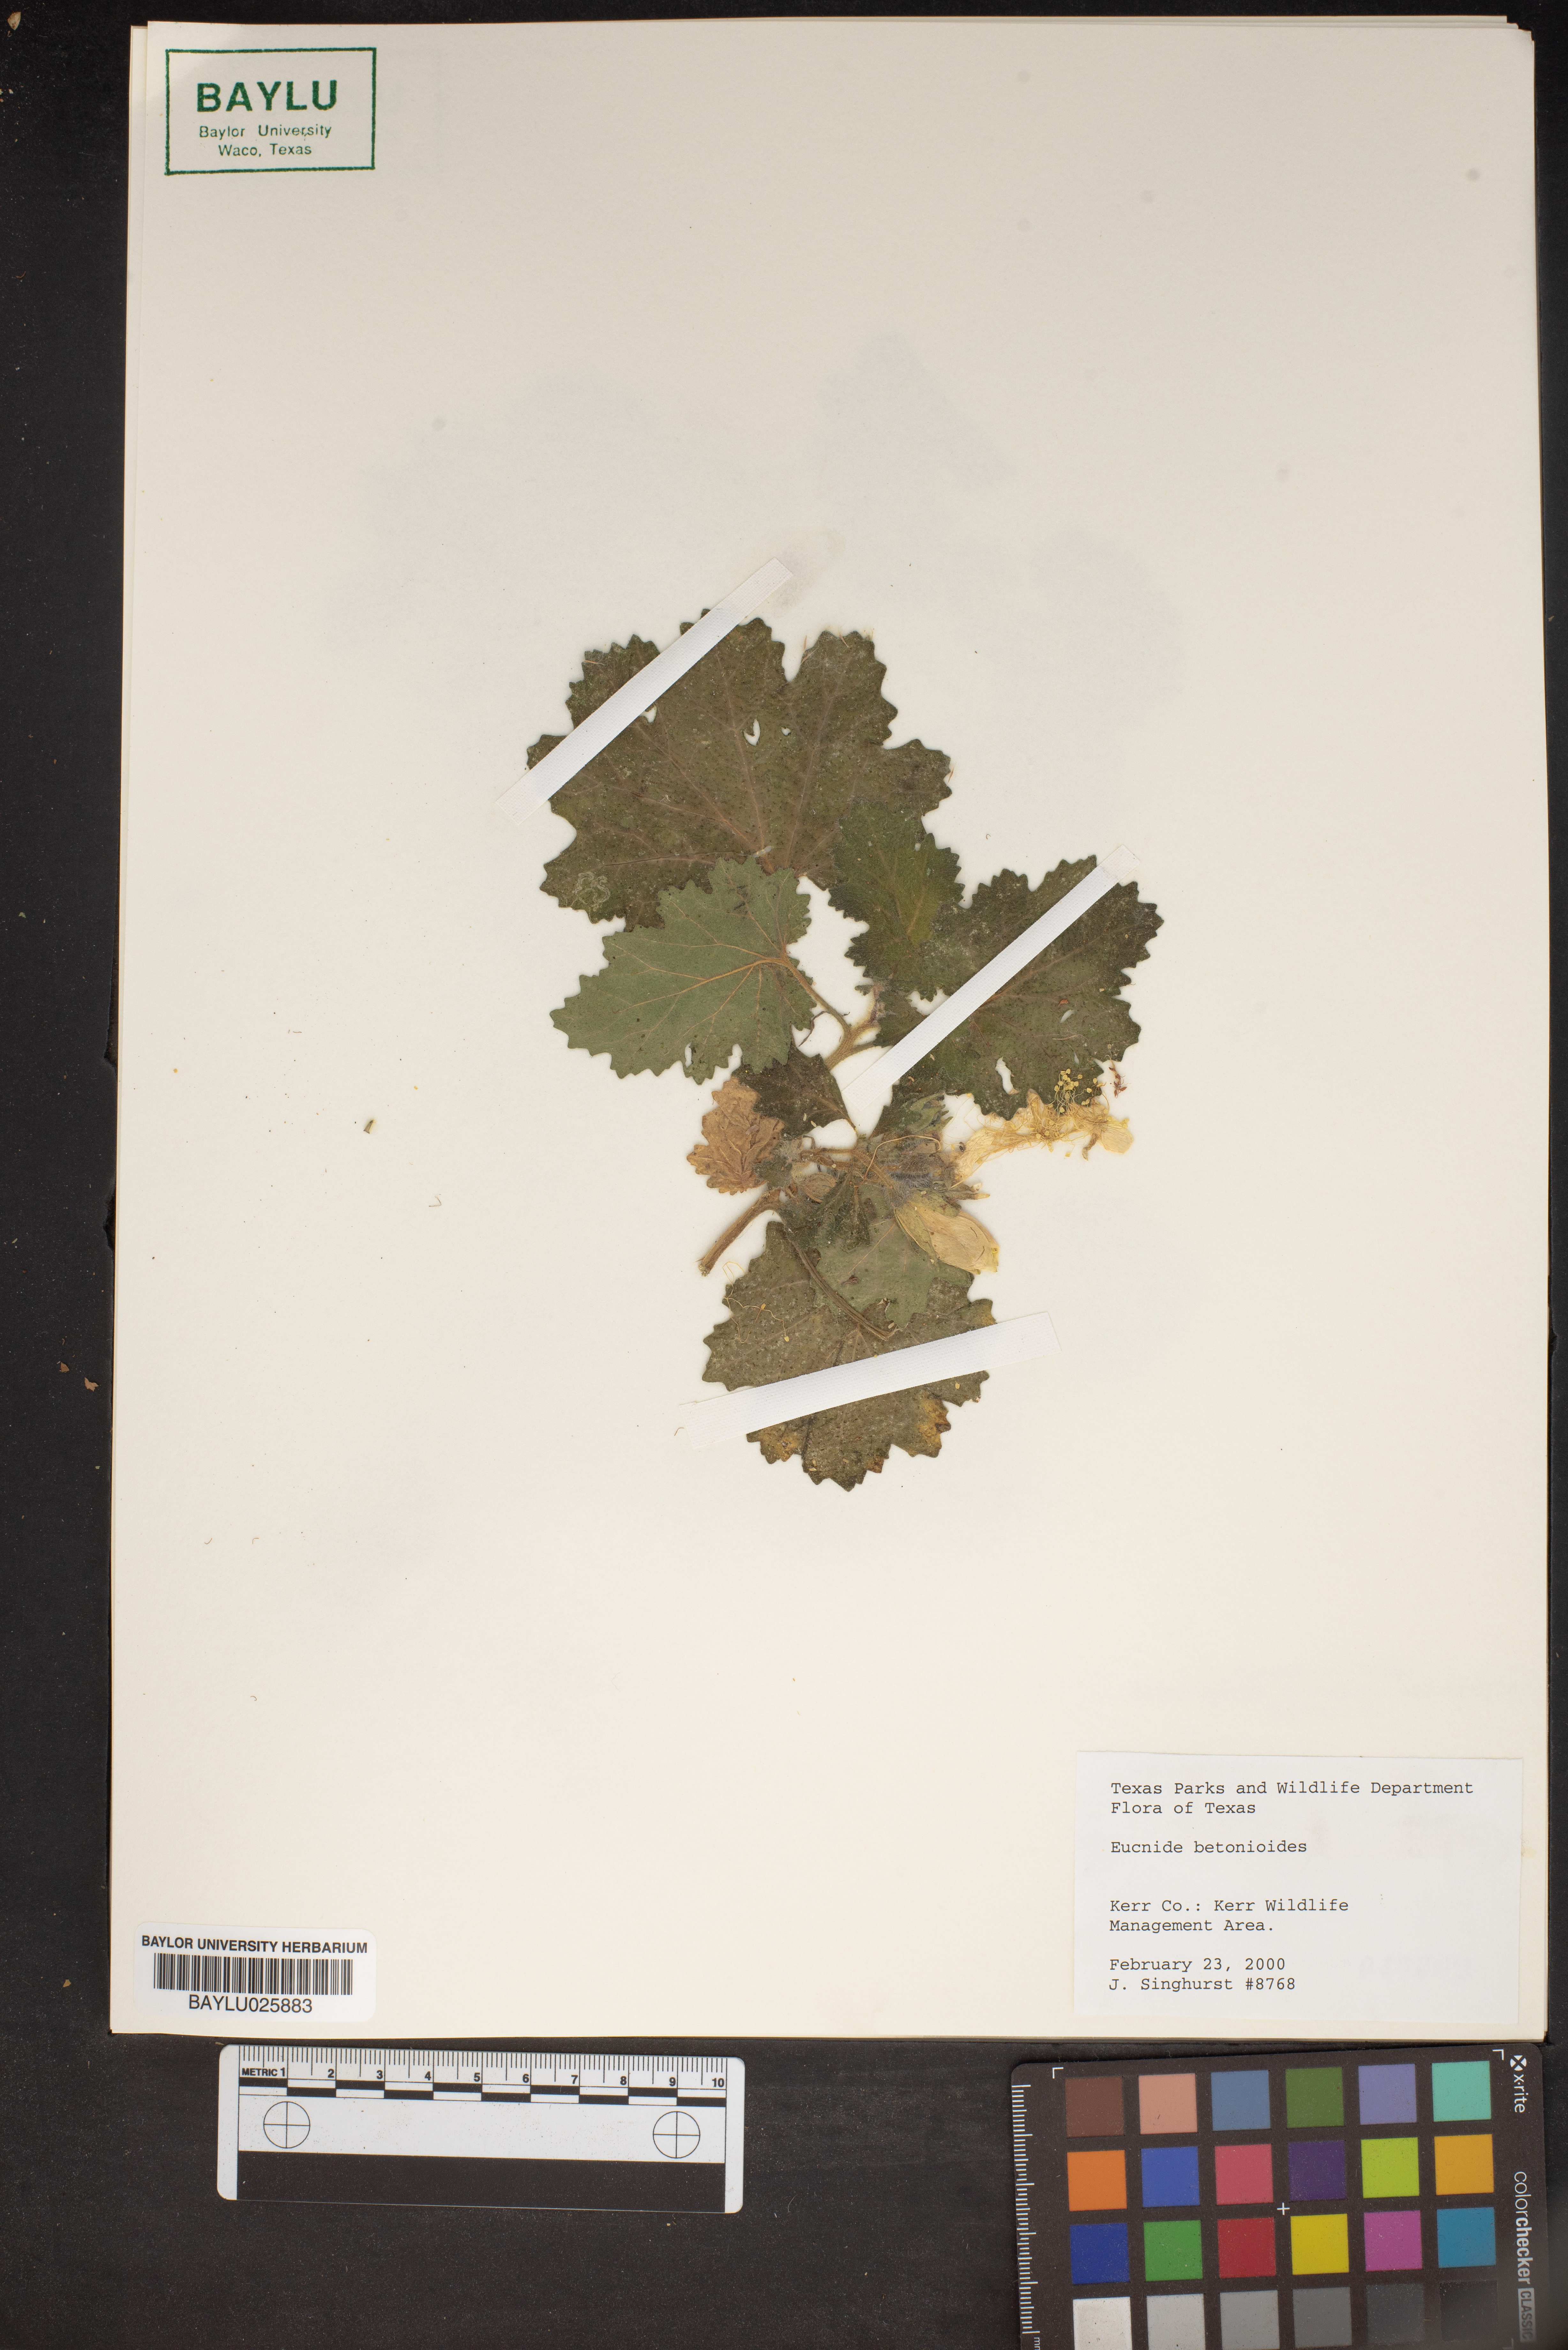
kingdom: Plantae
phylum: Tracheophyta
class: Magnoliopsida
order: Cornales
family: Loasaceae
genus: Eucnide
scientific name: Eucnide bartonioides
